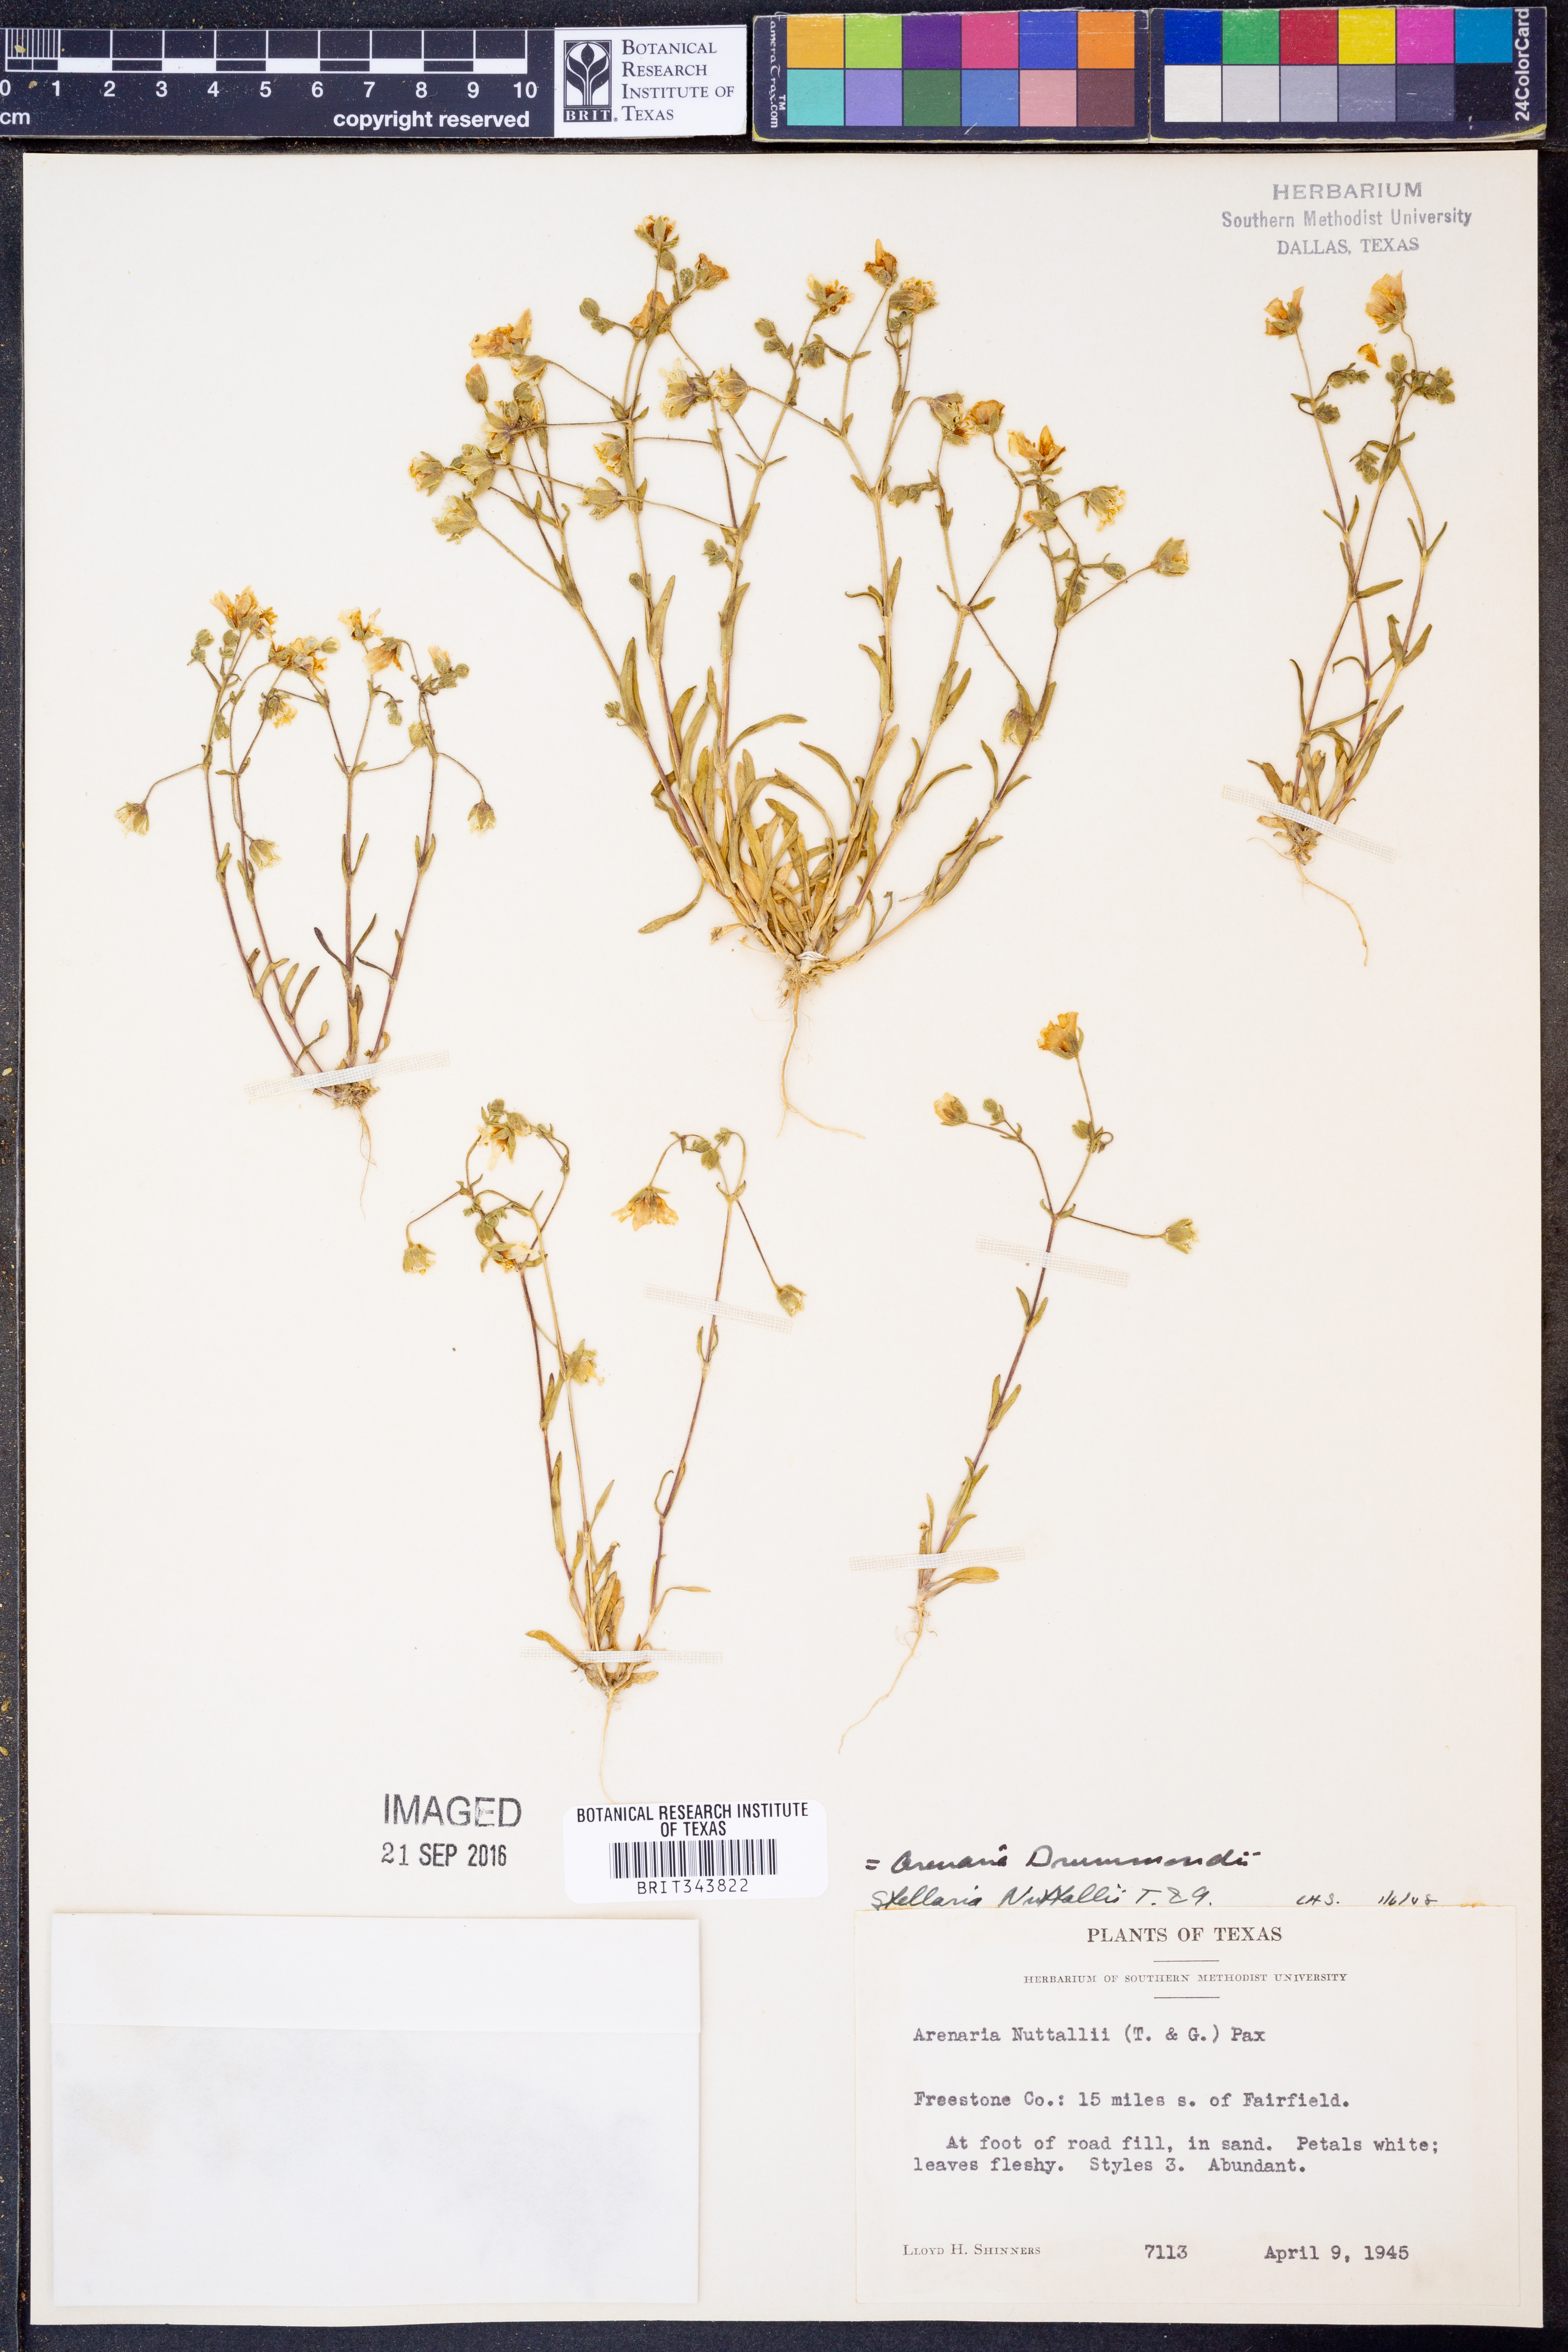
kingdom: Plantae
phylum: Tracheophyta
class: Magnoliopsida
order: Caryophyllales
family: Caryophyllaceae
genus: Geocarpon
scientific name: Geocarpon nuttallii
